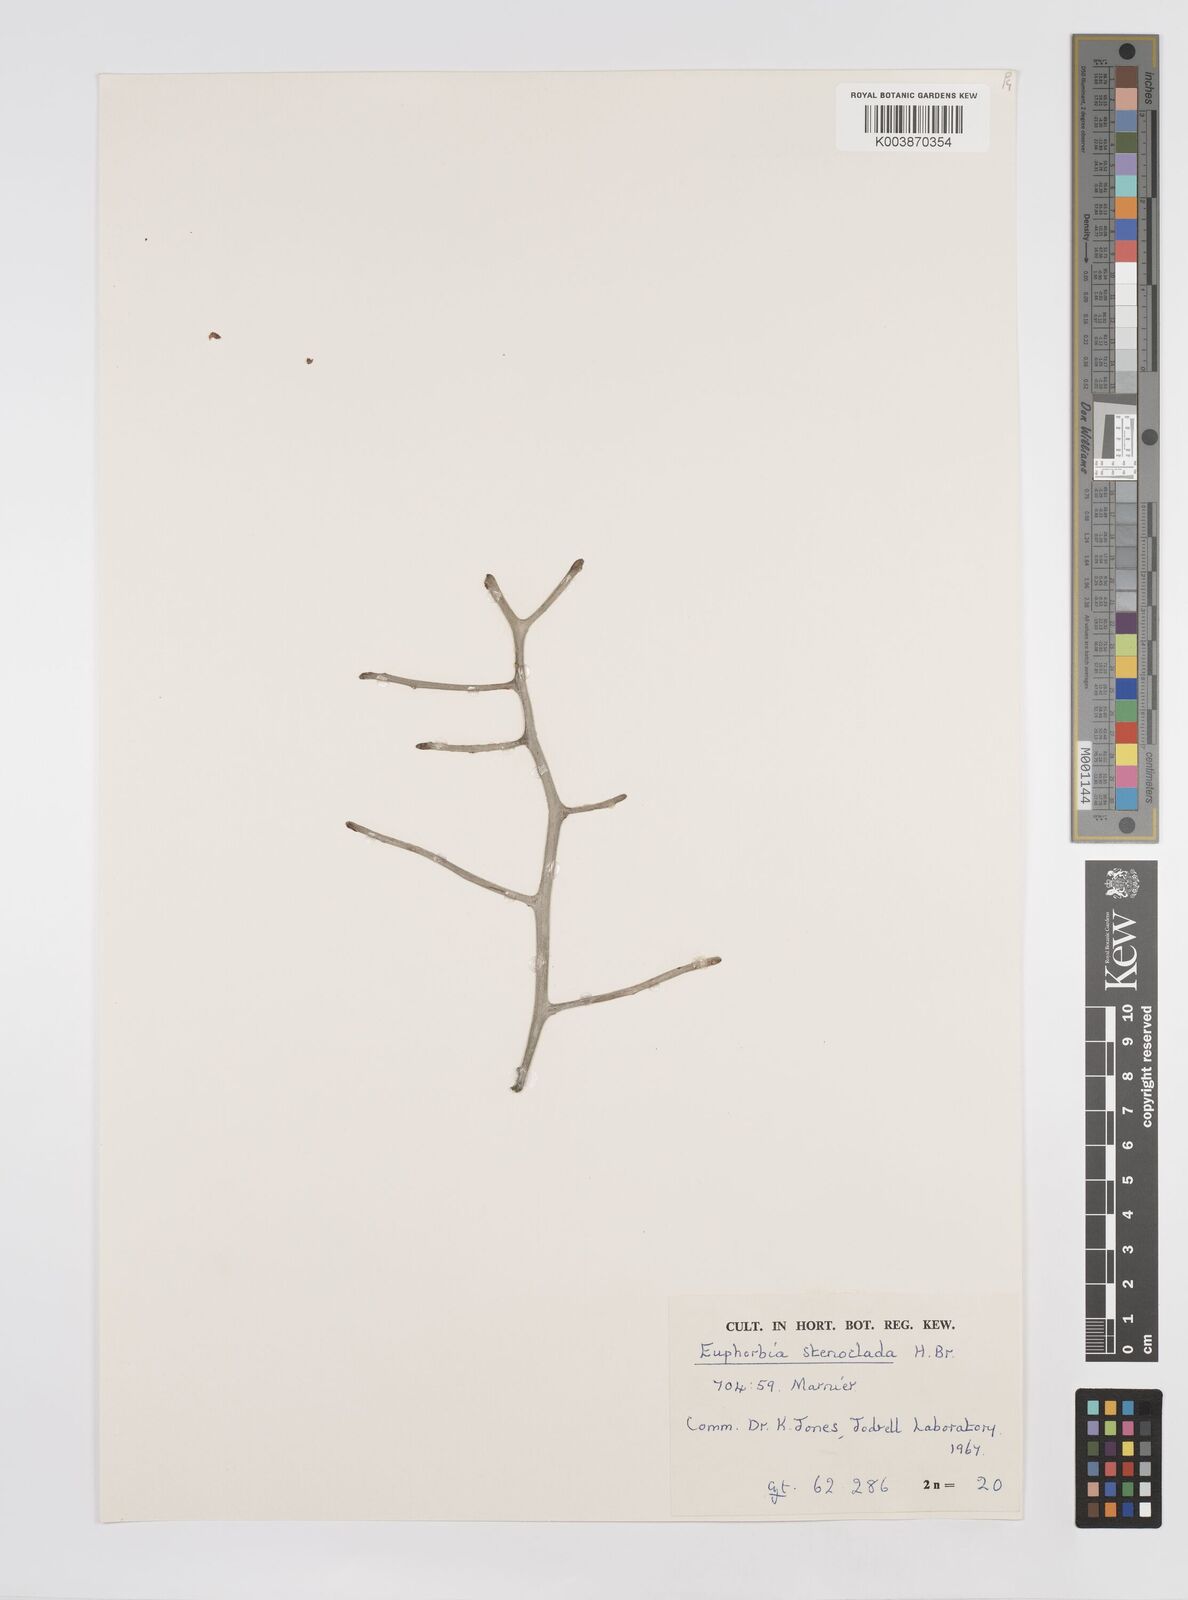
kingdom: Plantae
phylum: Tracheophyta
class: Magnoliopsida
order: Malpighiales
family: Euphorbiaceae
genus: Euphorbia
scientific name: Euphorbia stenoclada
